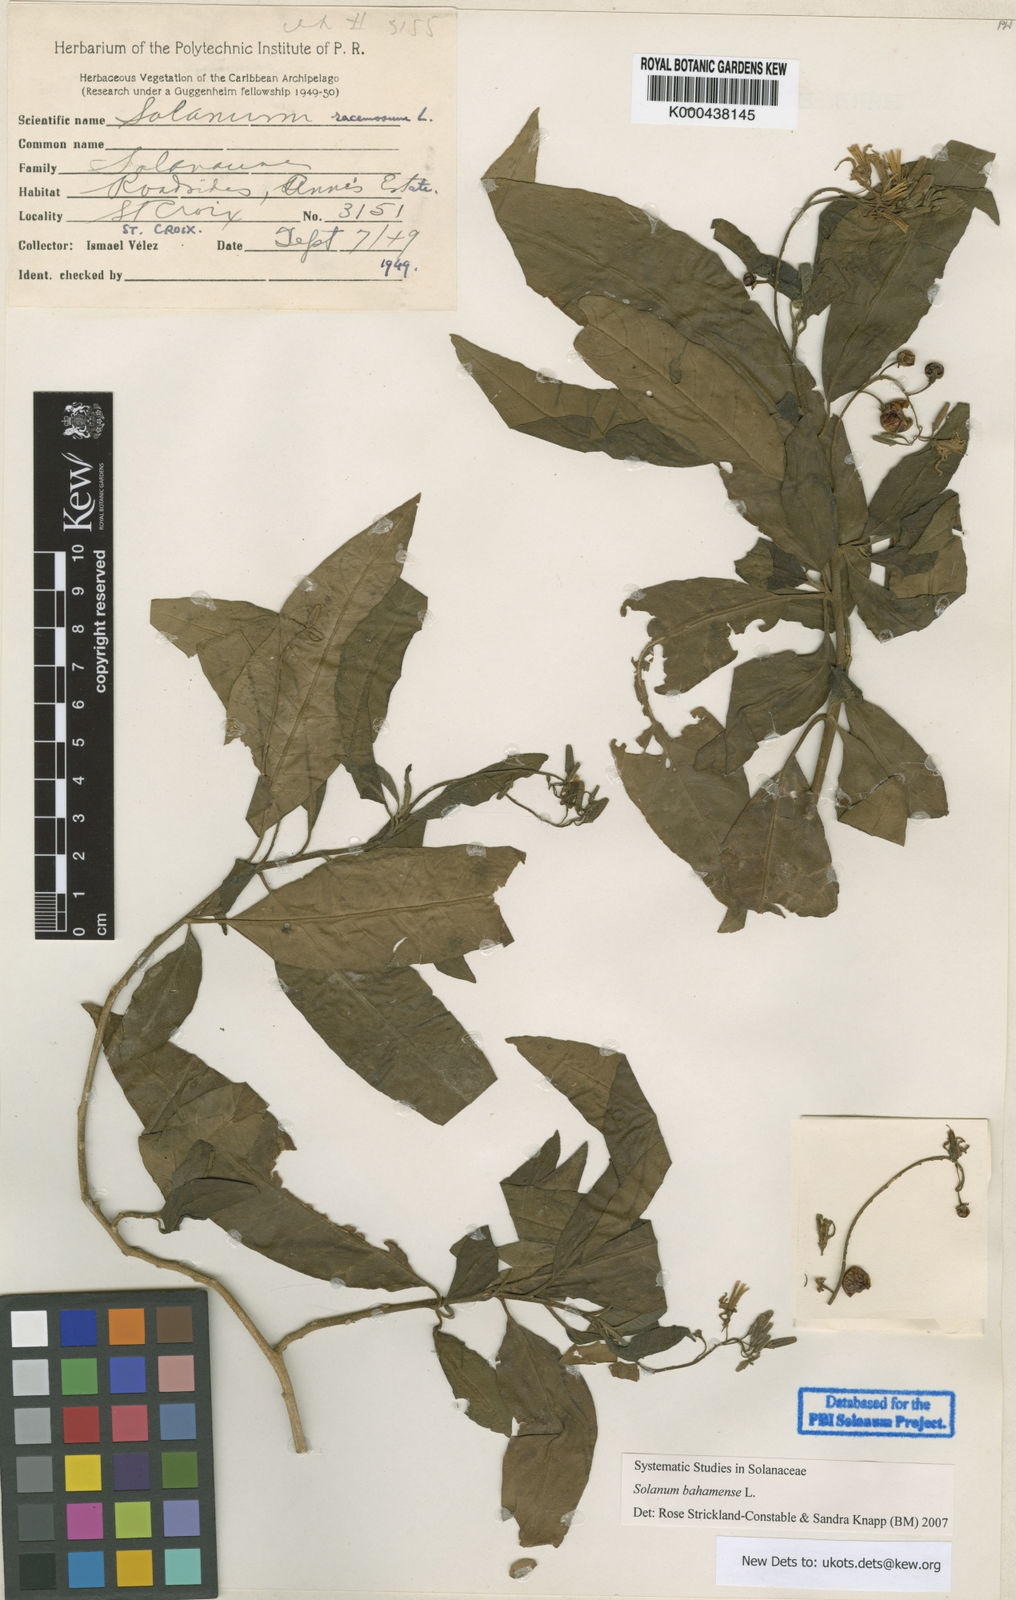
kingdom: Plantae
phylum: Tracheophyta
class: Magnoliopsida
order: Solanales
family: Solanaceae
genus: Solanum
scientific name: Solanum bahamense
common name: Canker-berry
